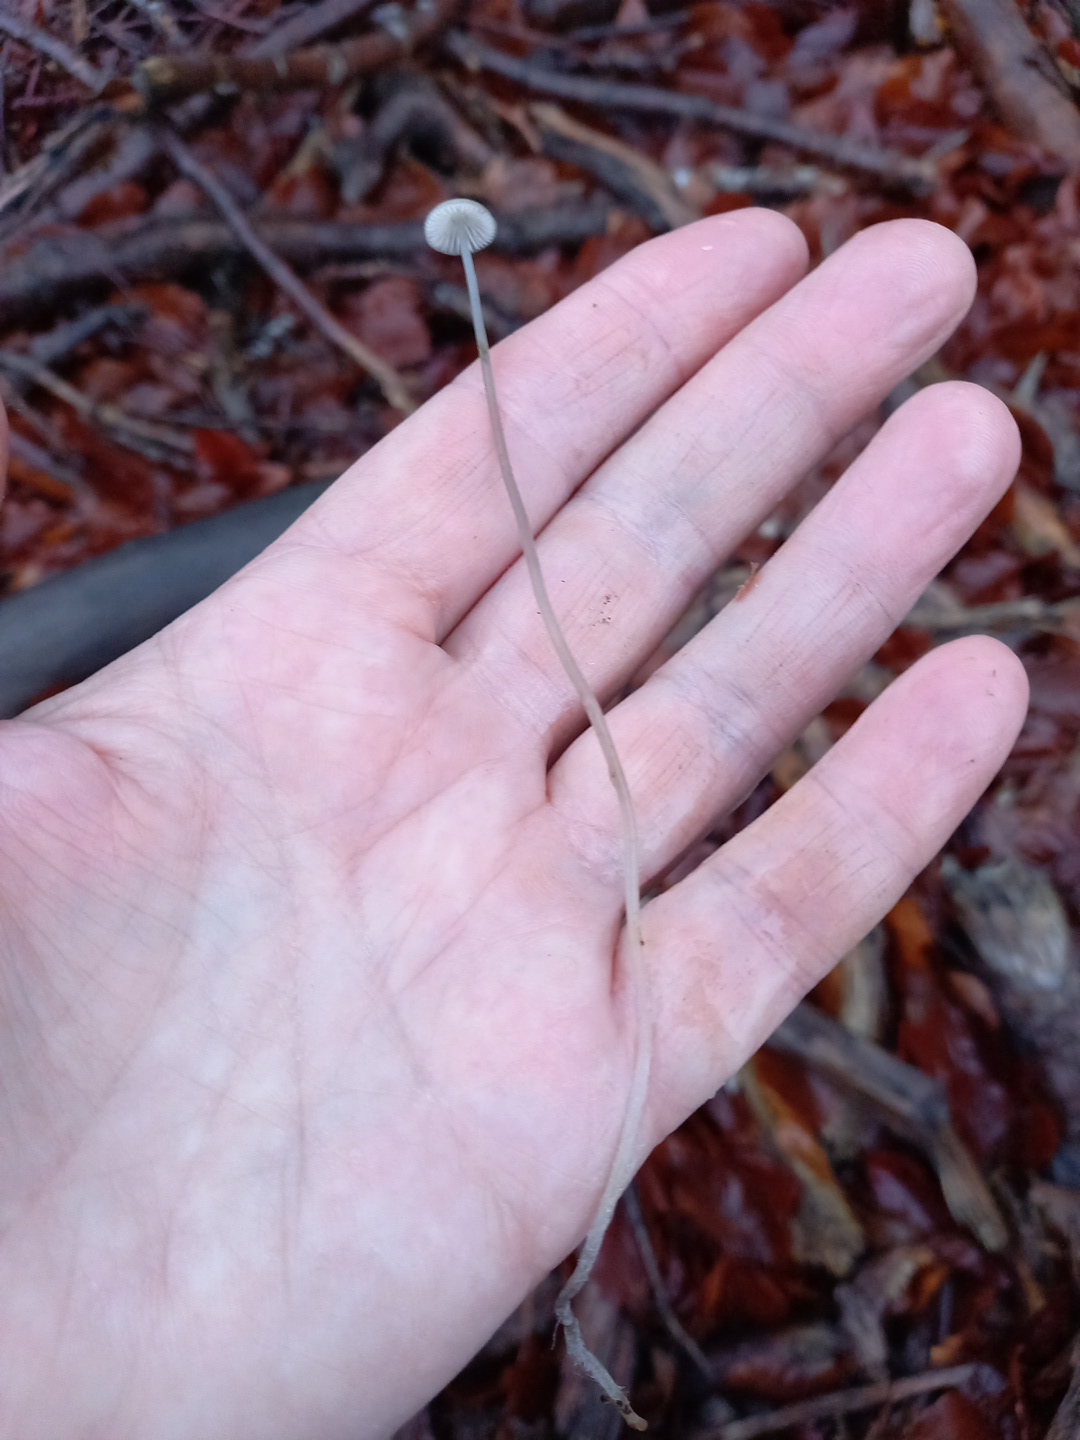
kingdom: Fungi
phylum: Basidiomycota
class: Agaricomycetes
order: Agaricales
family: Mycenaceae
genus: Mycena
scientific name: Mycena vitilis
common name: blankstokket huesvamp
